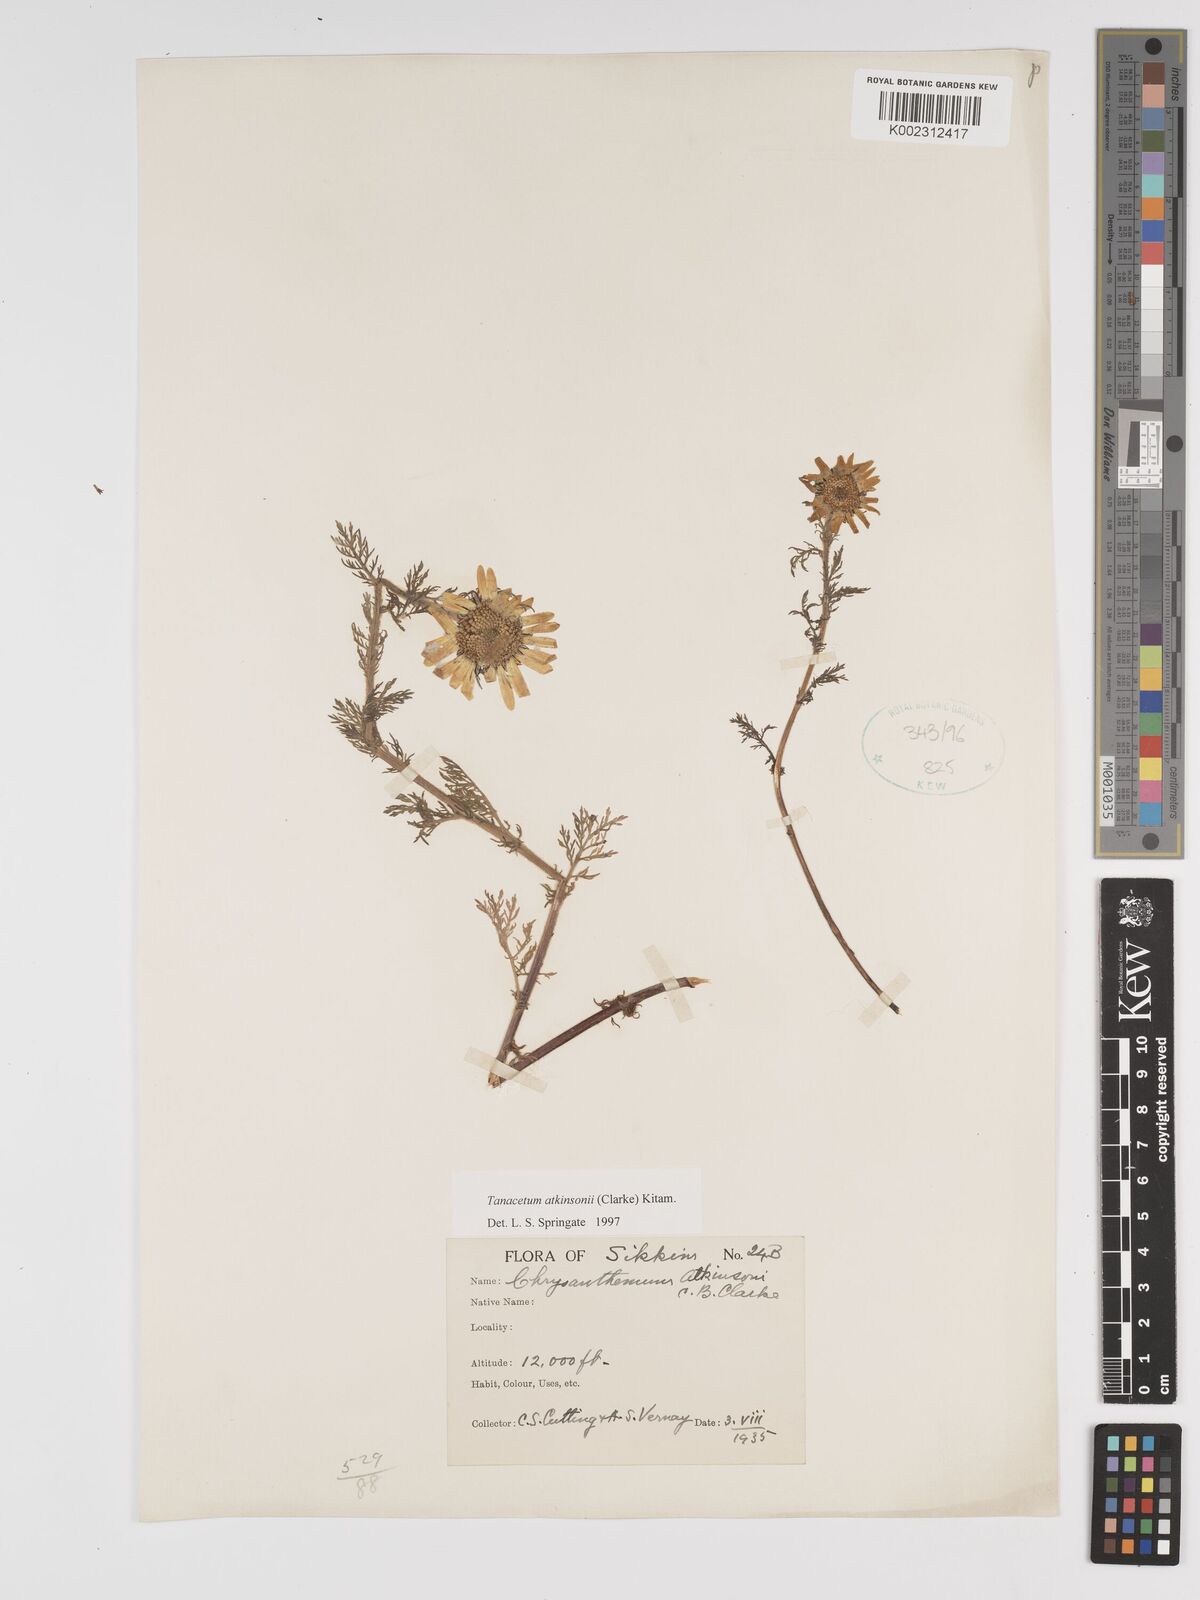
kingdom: Plantae
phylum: Tracheophyta
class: Magnoliopsida
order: Asterales
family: Asteraceae
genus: Tanacetum
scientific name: Tanacetum atkinsonii
